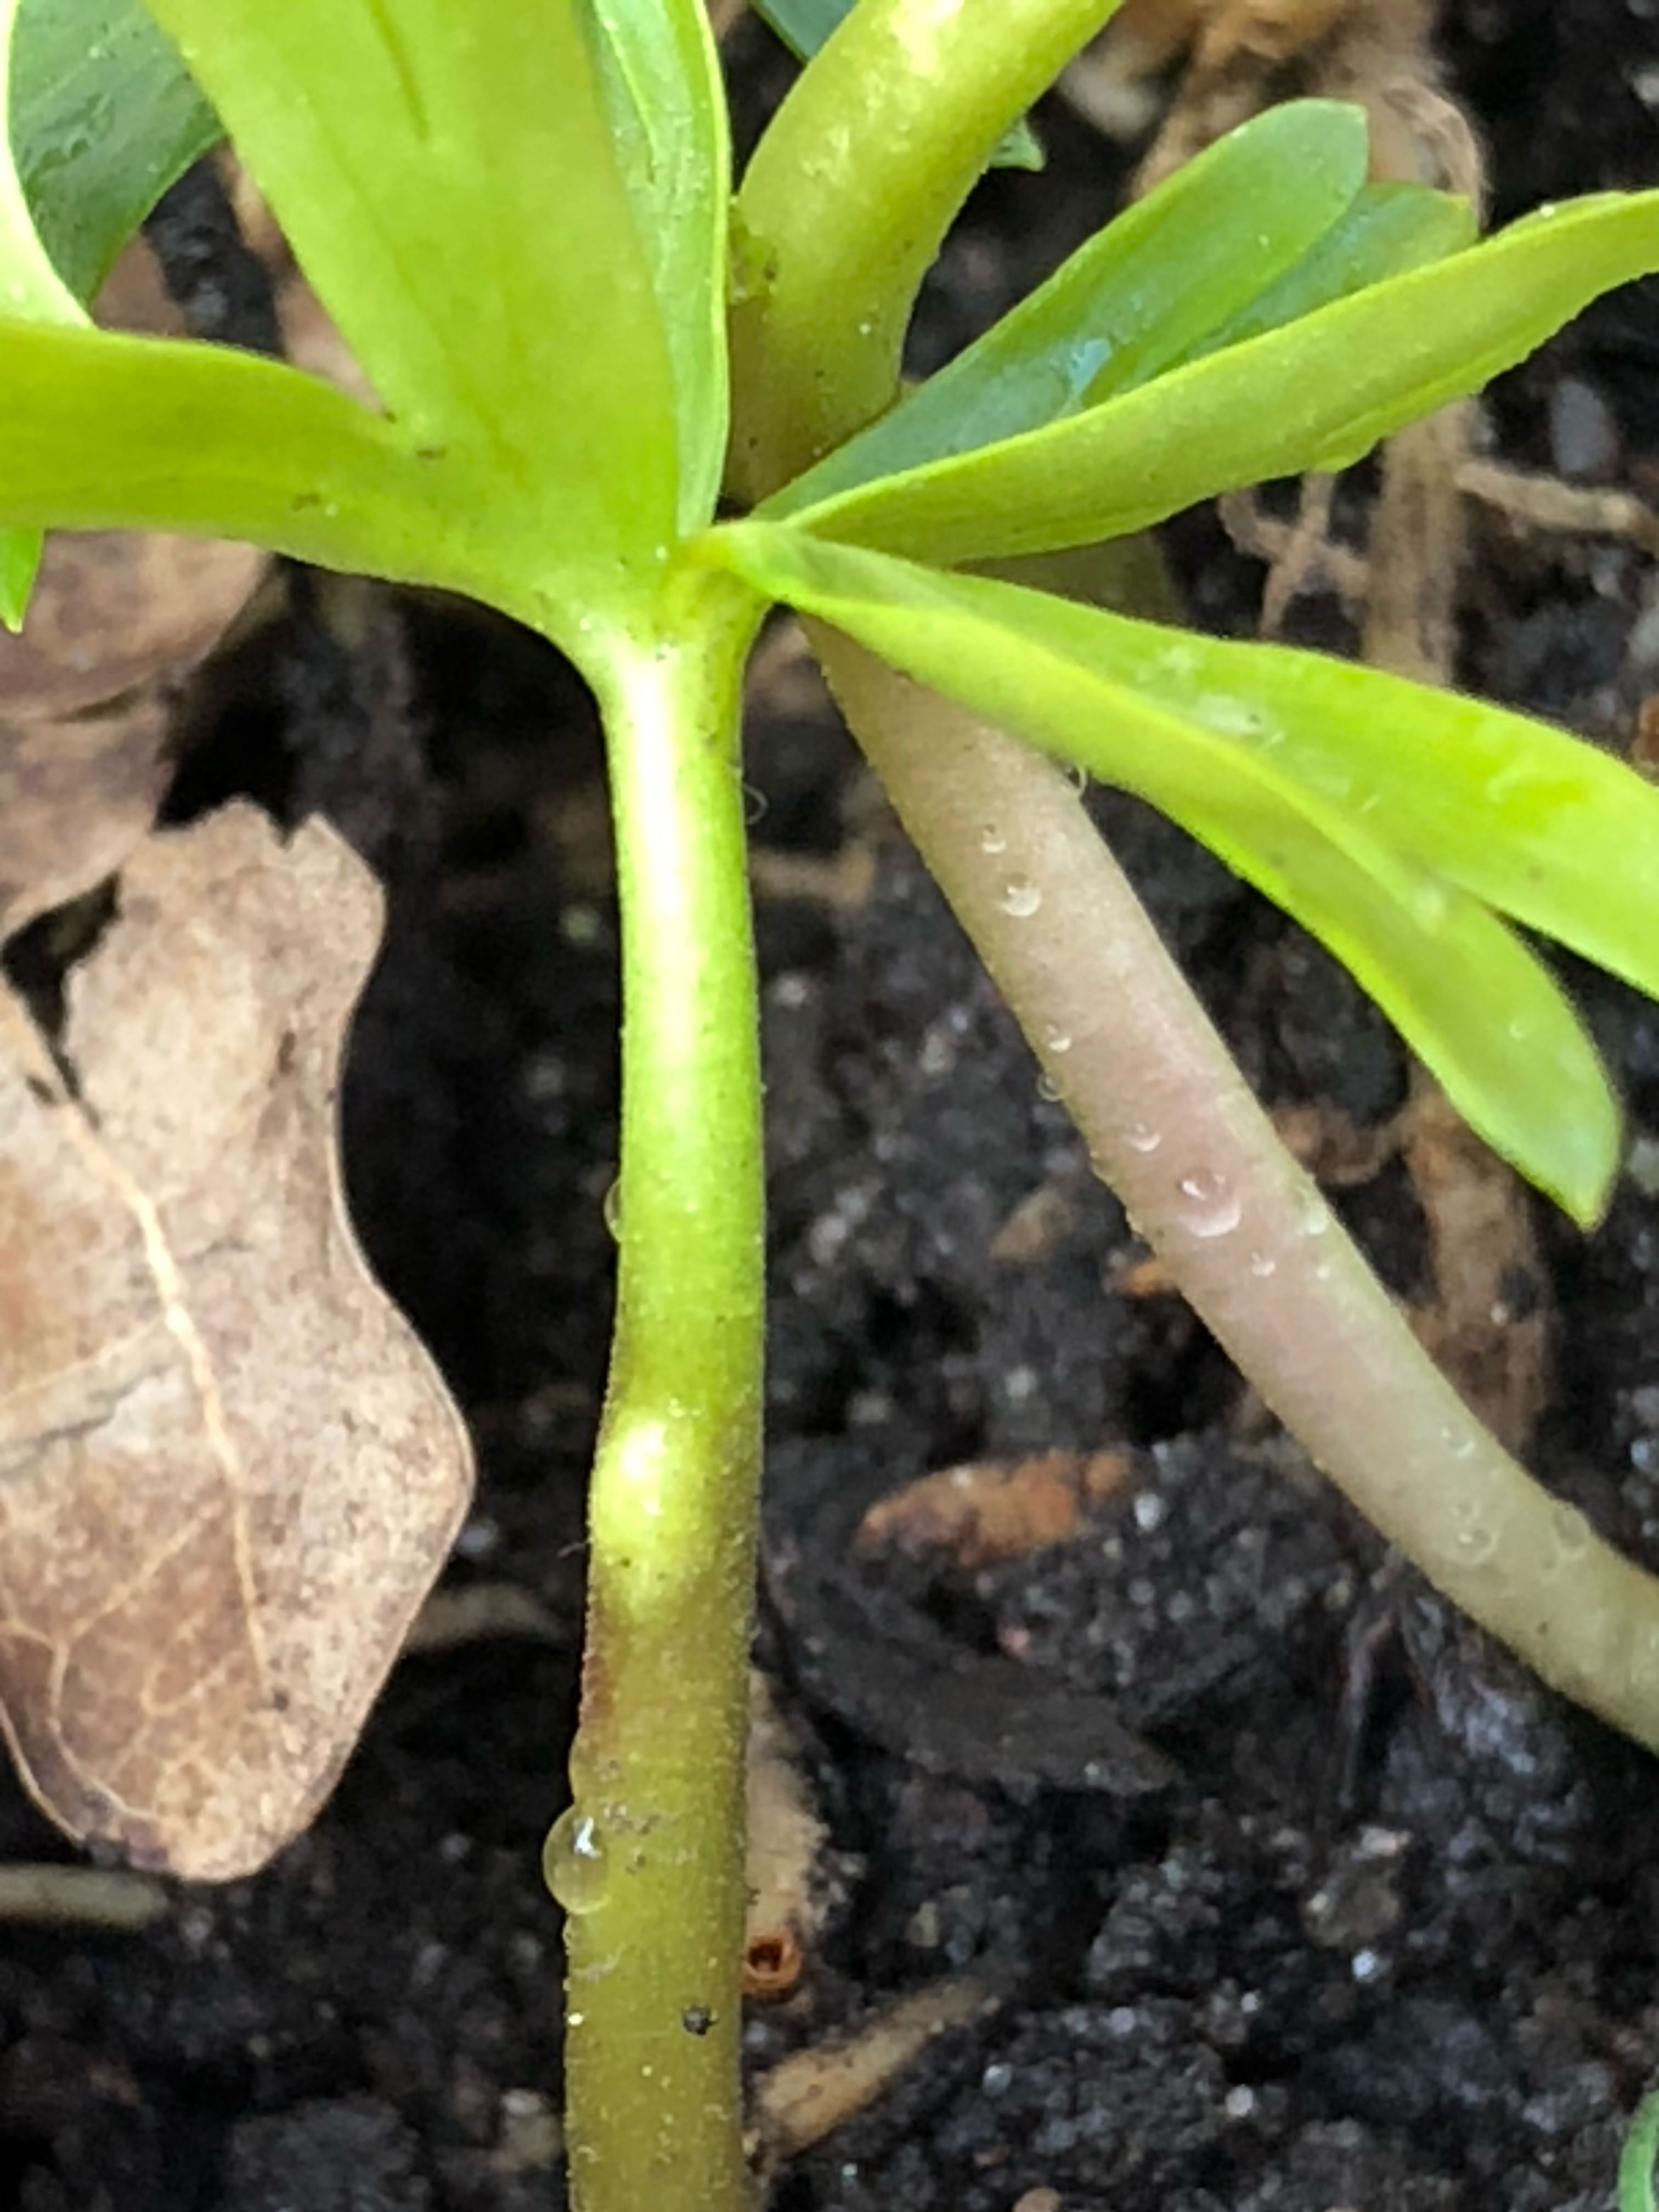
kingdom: Fungi
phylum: Basidiomycota
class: Ustilaginomycetes
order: Urocystidales
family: Urocystidaceae
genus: Urocystis
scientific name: Urocystis eranthidis
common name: erantis-brand
